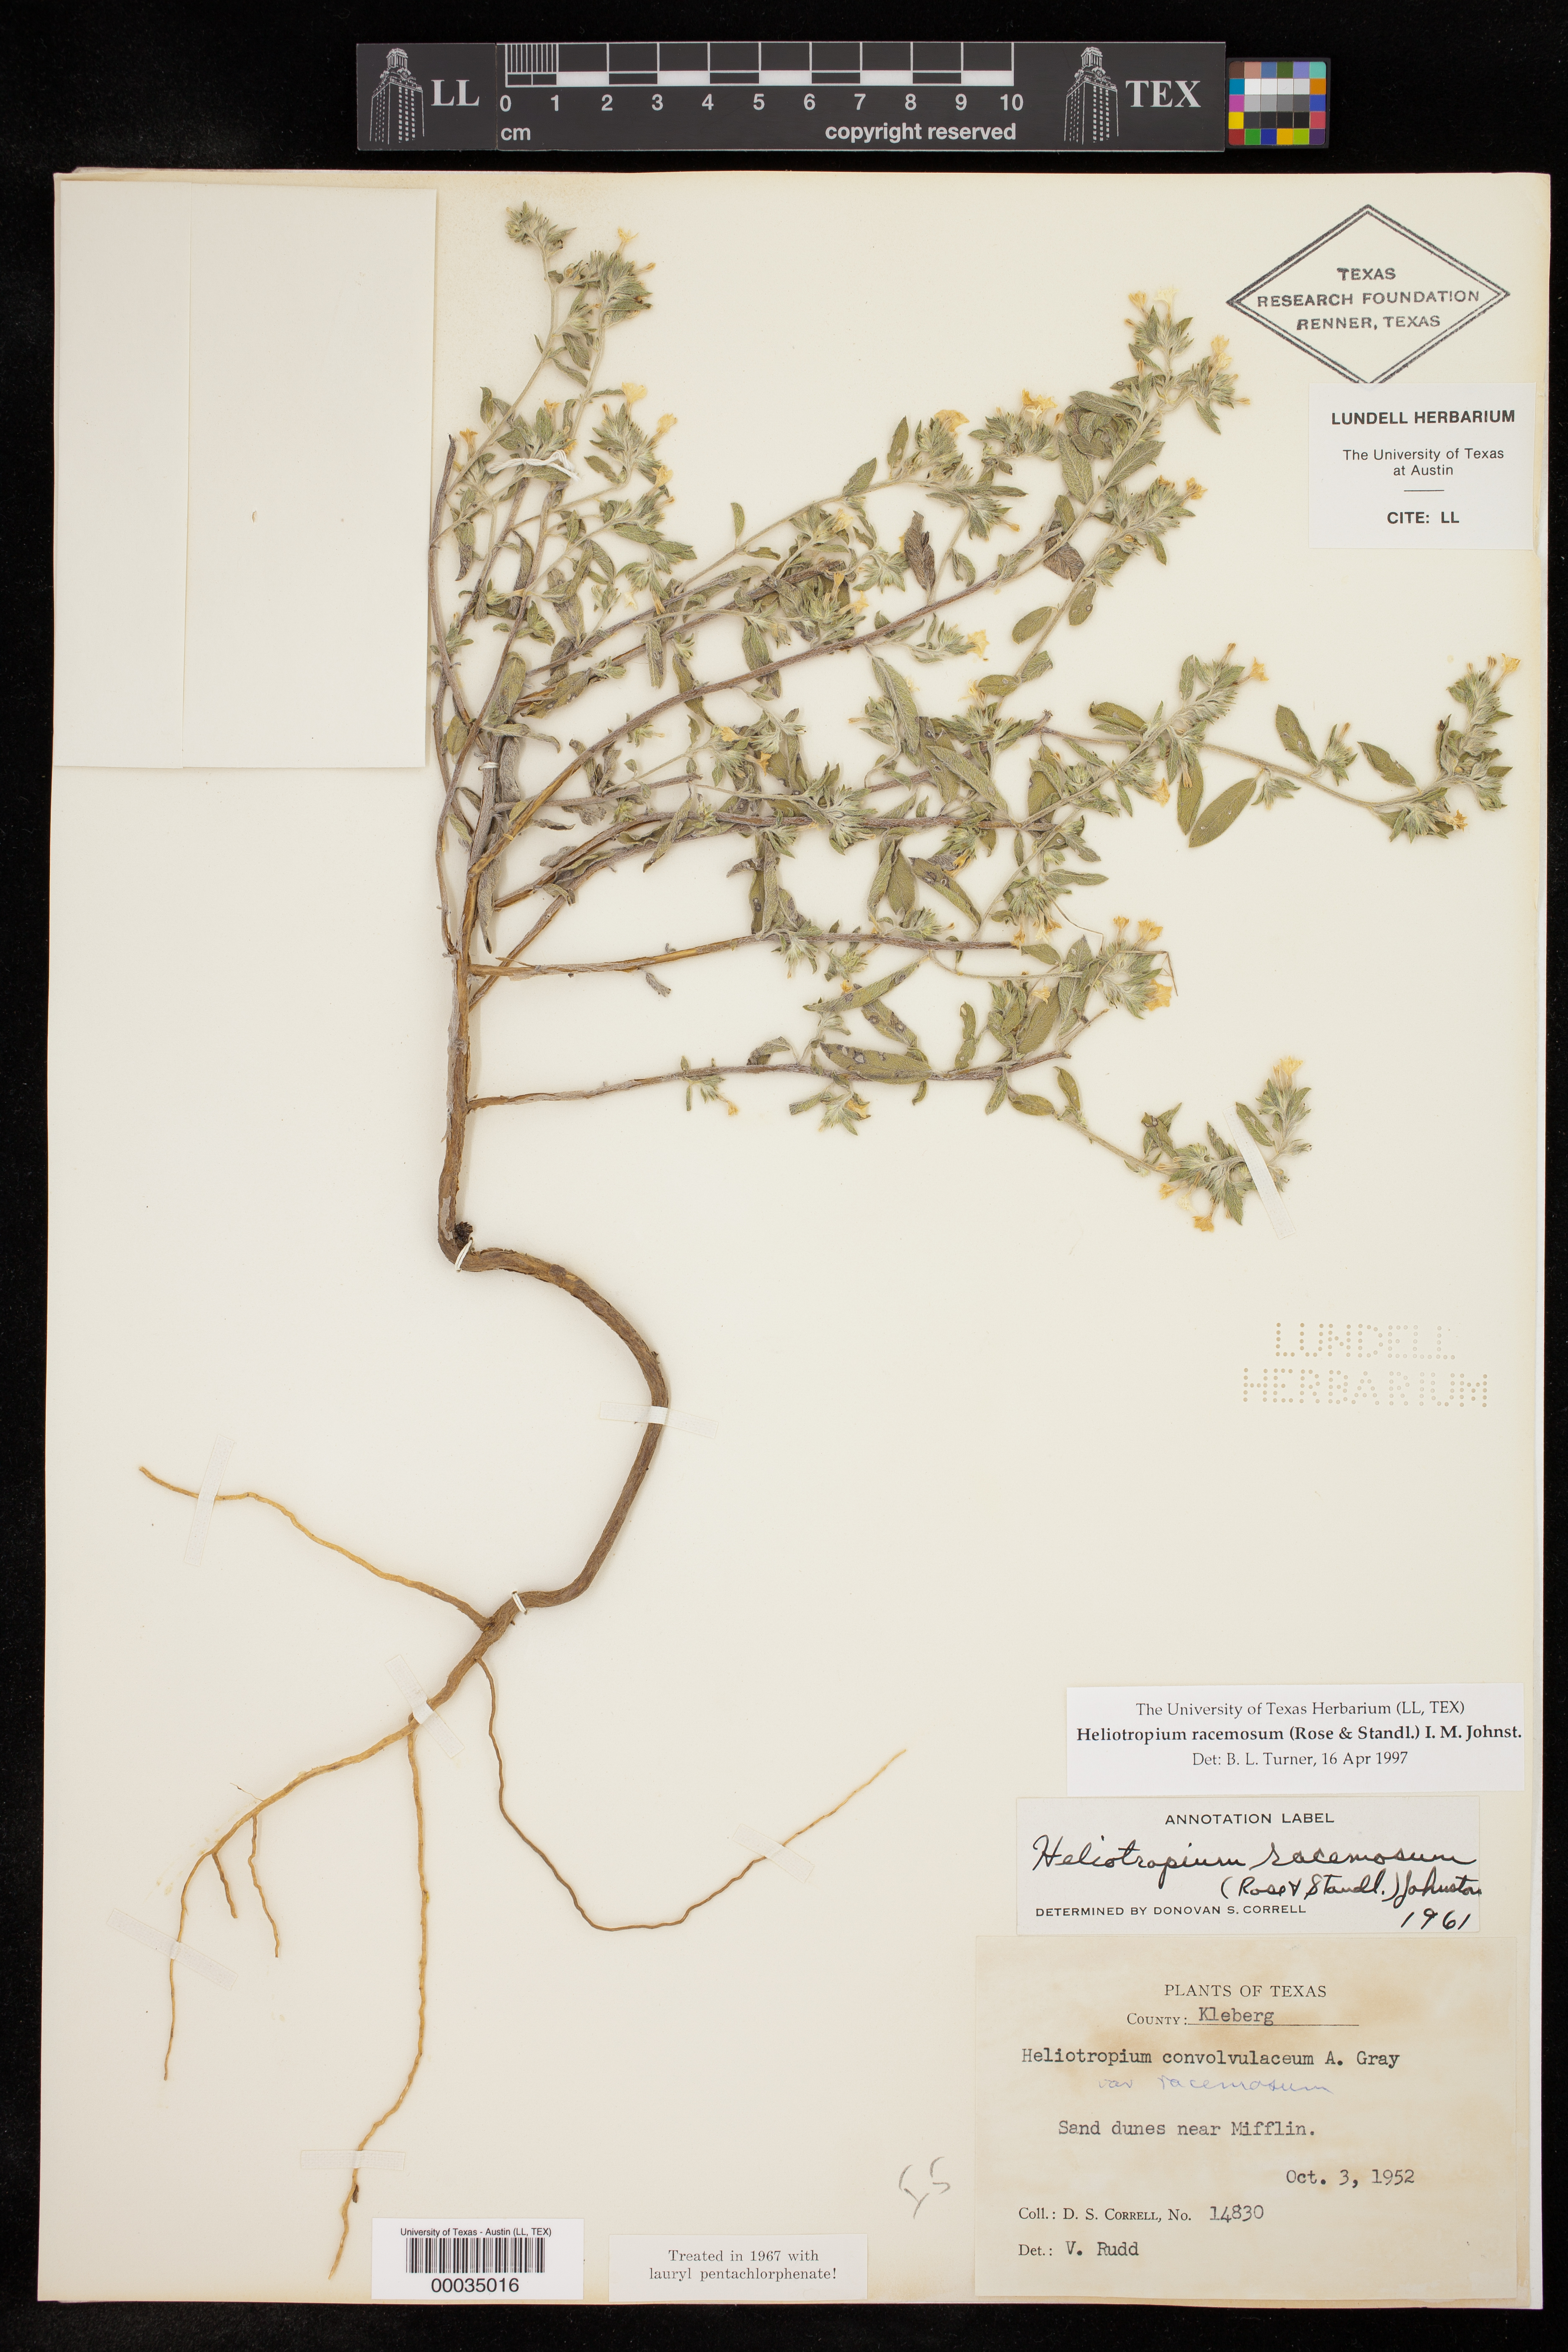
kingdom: Plantae
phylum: Tracheophyta
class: Magnoliopsida
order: Boraginales
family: Heliotropiaceae
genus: Heliotropium
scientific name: Heliotropium racemosum
